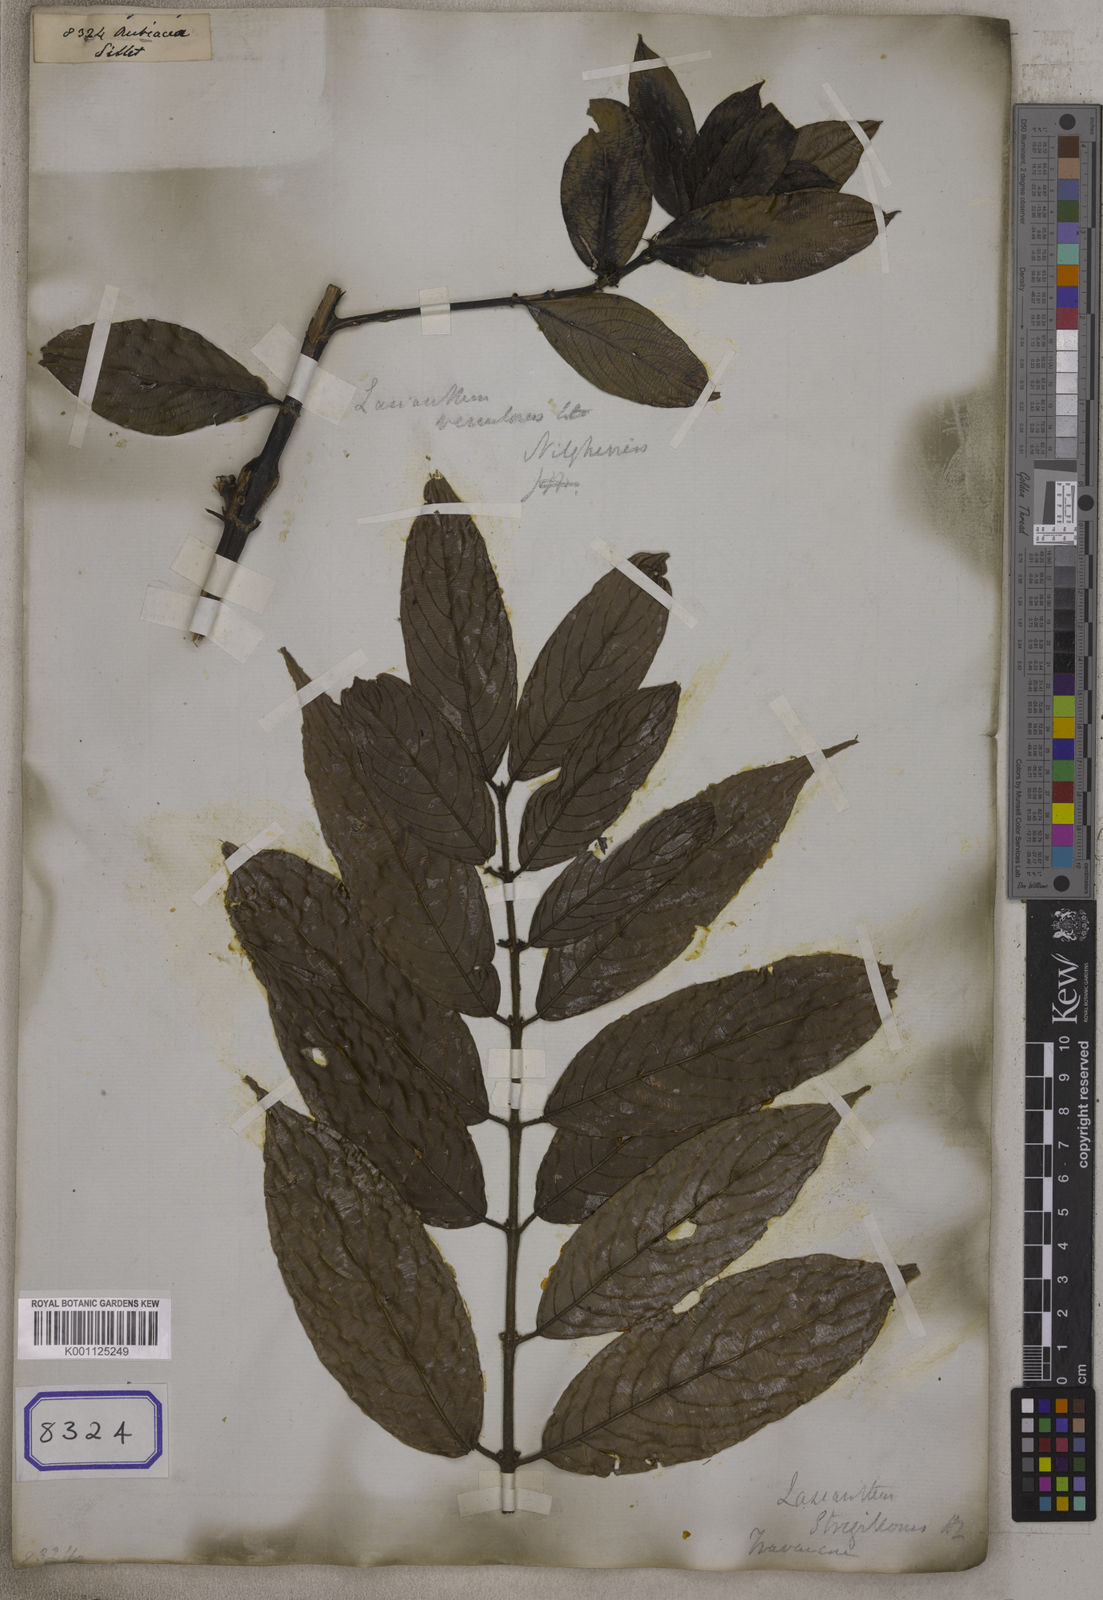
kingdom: Plantae
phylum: Tracheophyta
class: Magnoliopsida
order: Gentianales
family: Rubiaceae
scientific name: Rubiaceae
